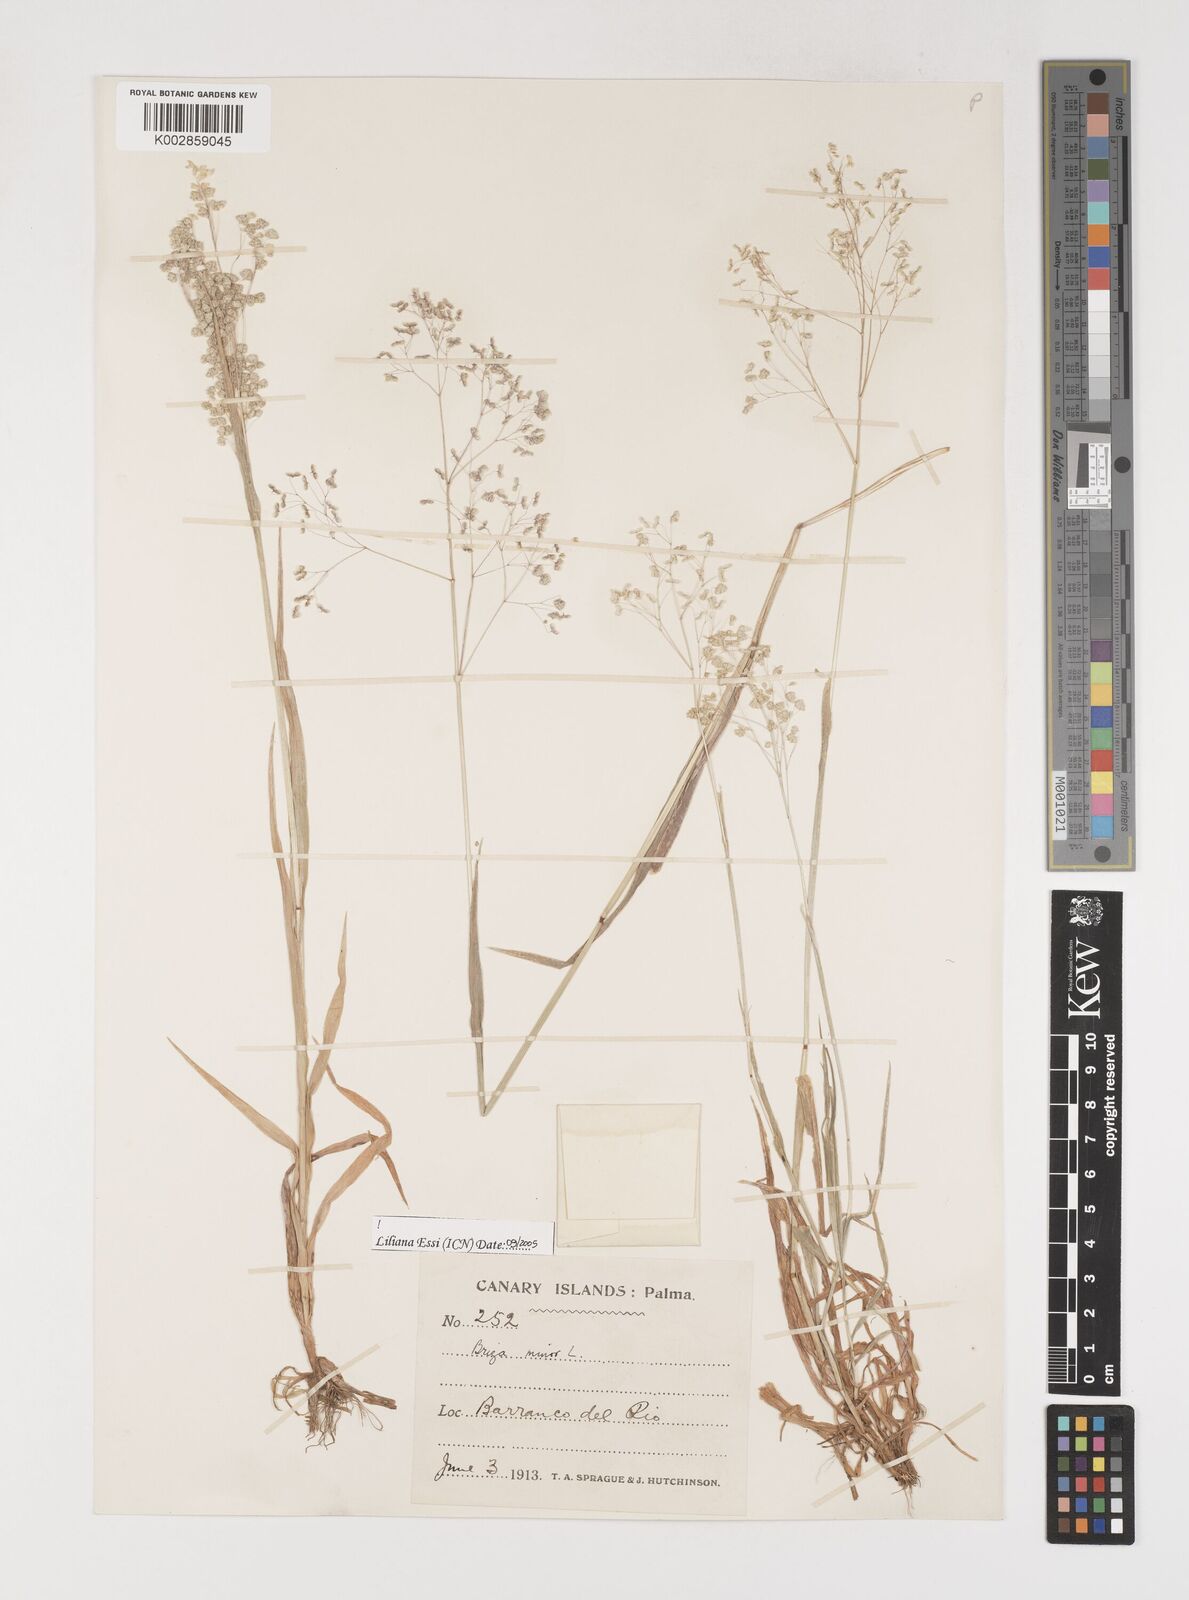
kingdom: Plantae
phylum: Tracheophyta
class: Liliopsida
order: Poales
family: Poaceae
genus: Briza
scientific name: Briza minor
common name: Lesser quaking-grass
